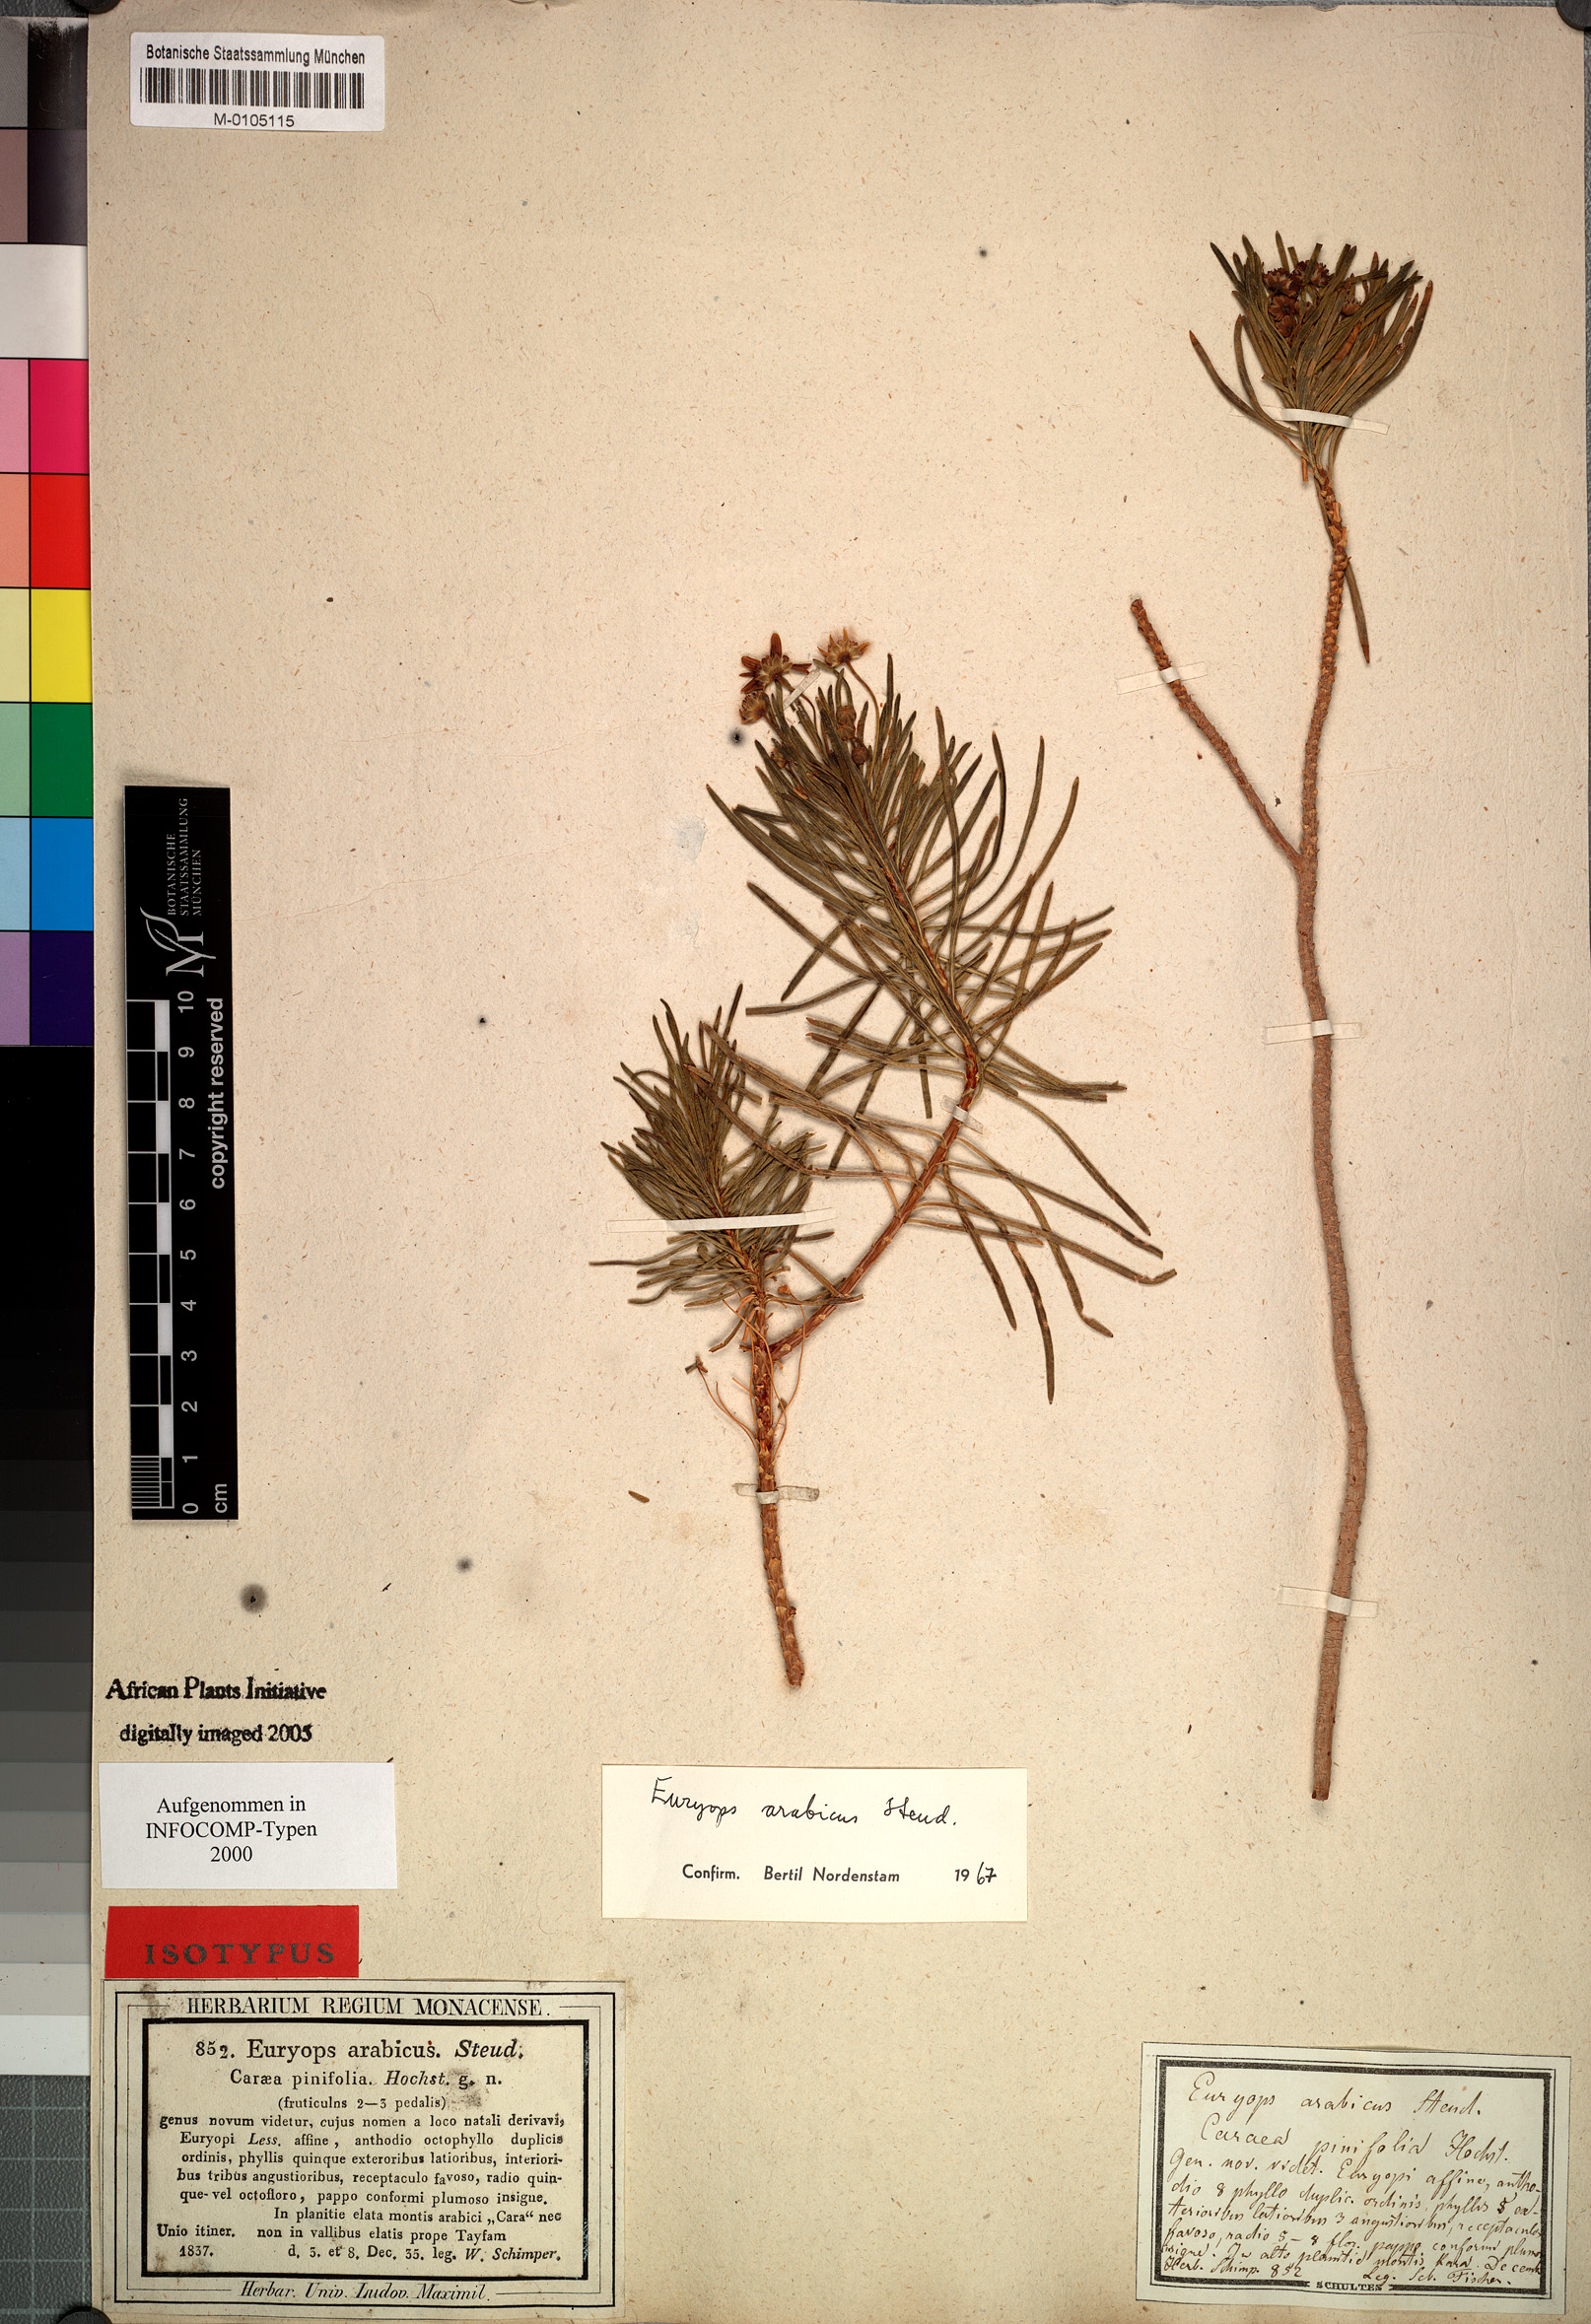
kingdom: Plantae
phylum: Tracheophyta
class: Magnoliopsida
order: Asterales
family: Asteraceae
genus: Euryops
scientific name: Euryops arabicus
